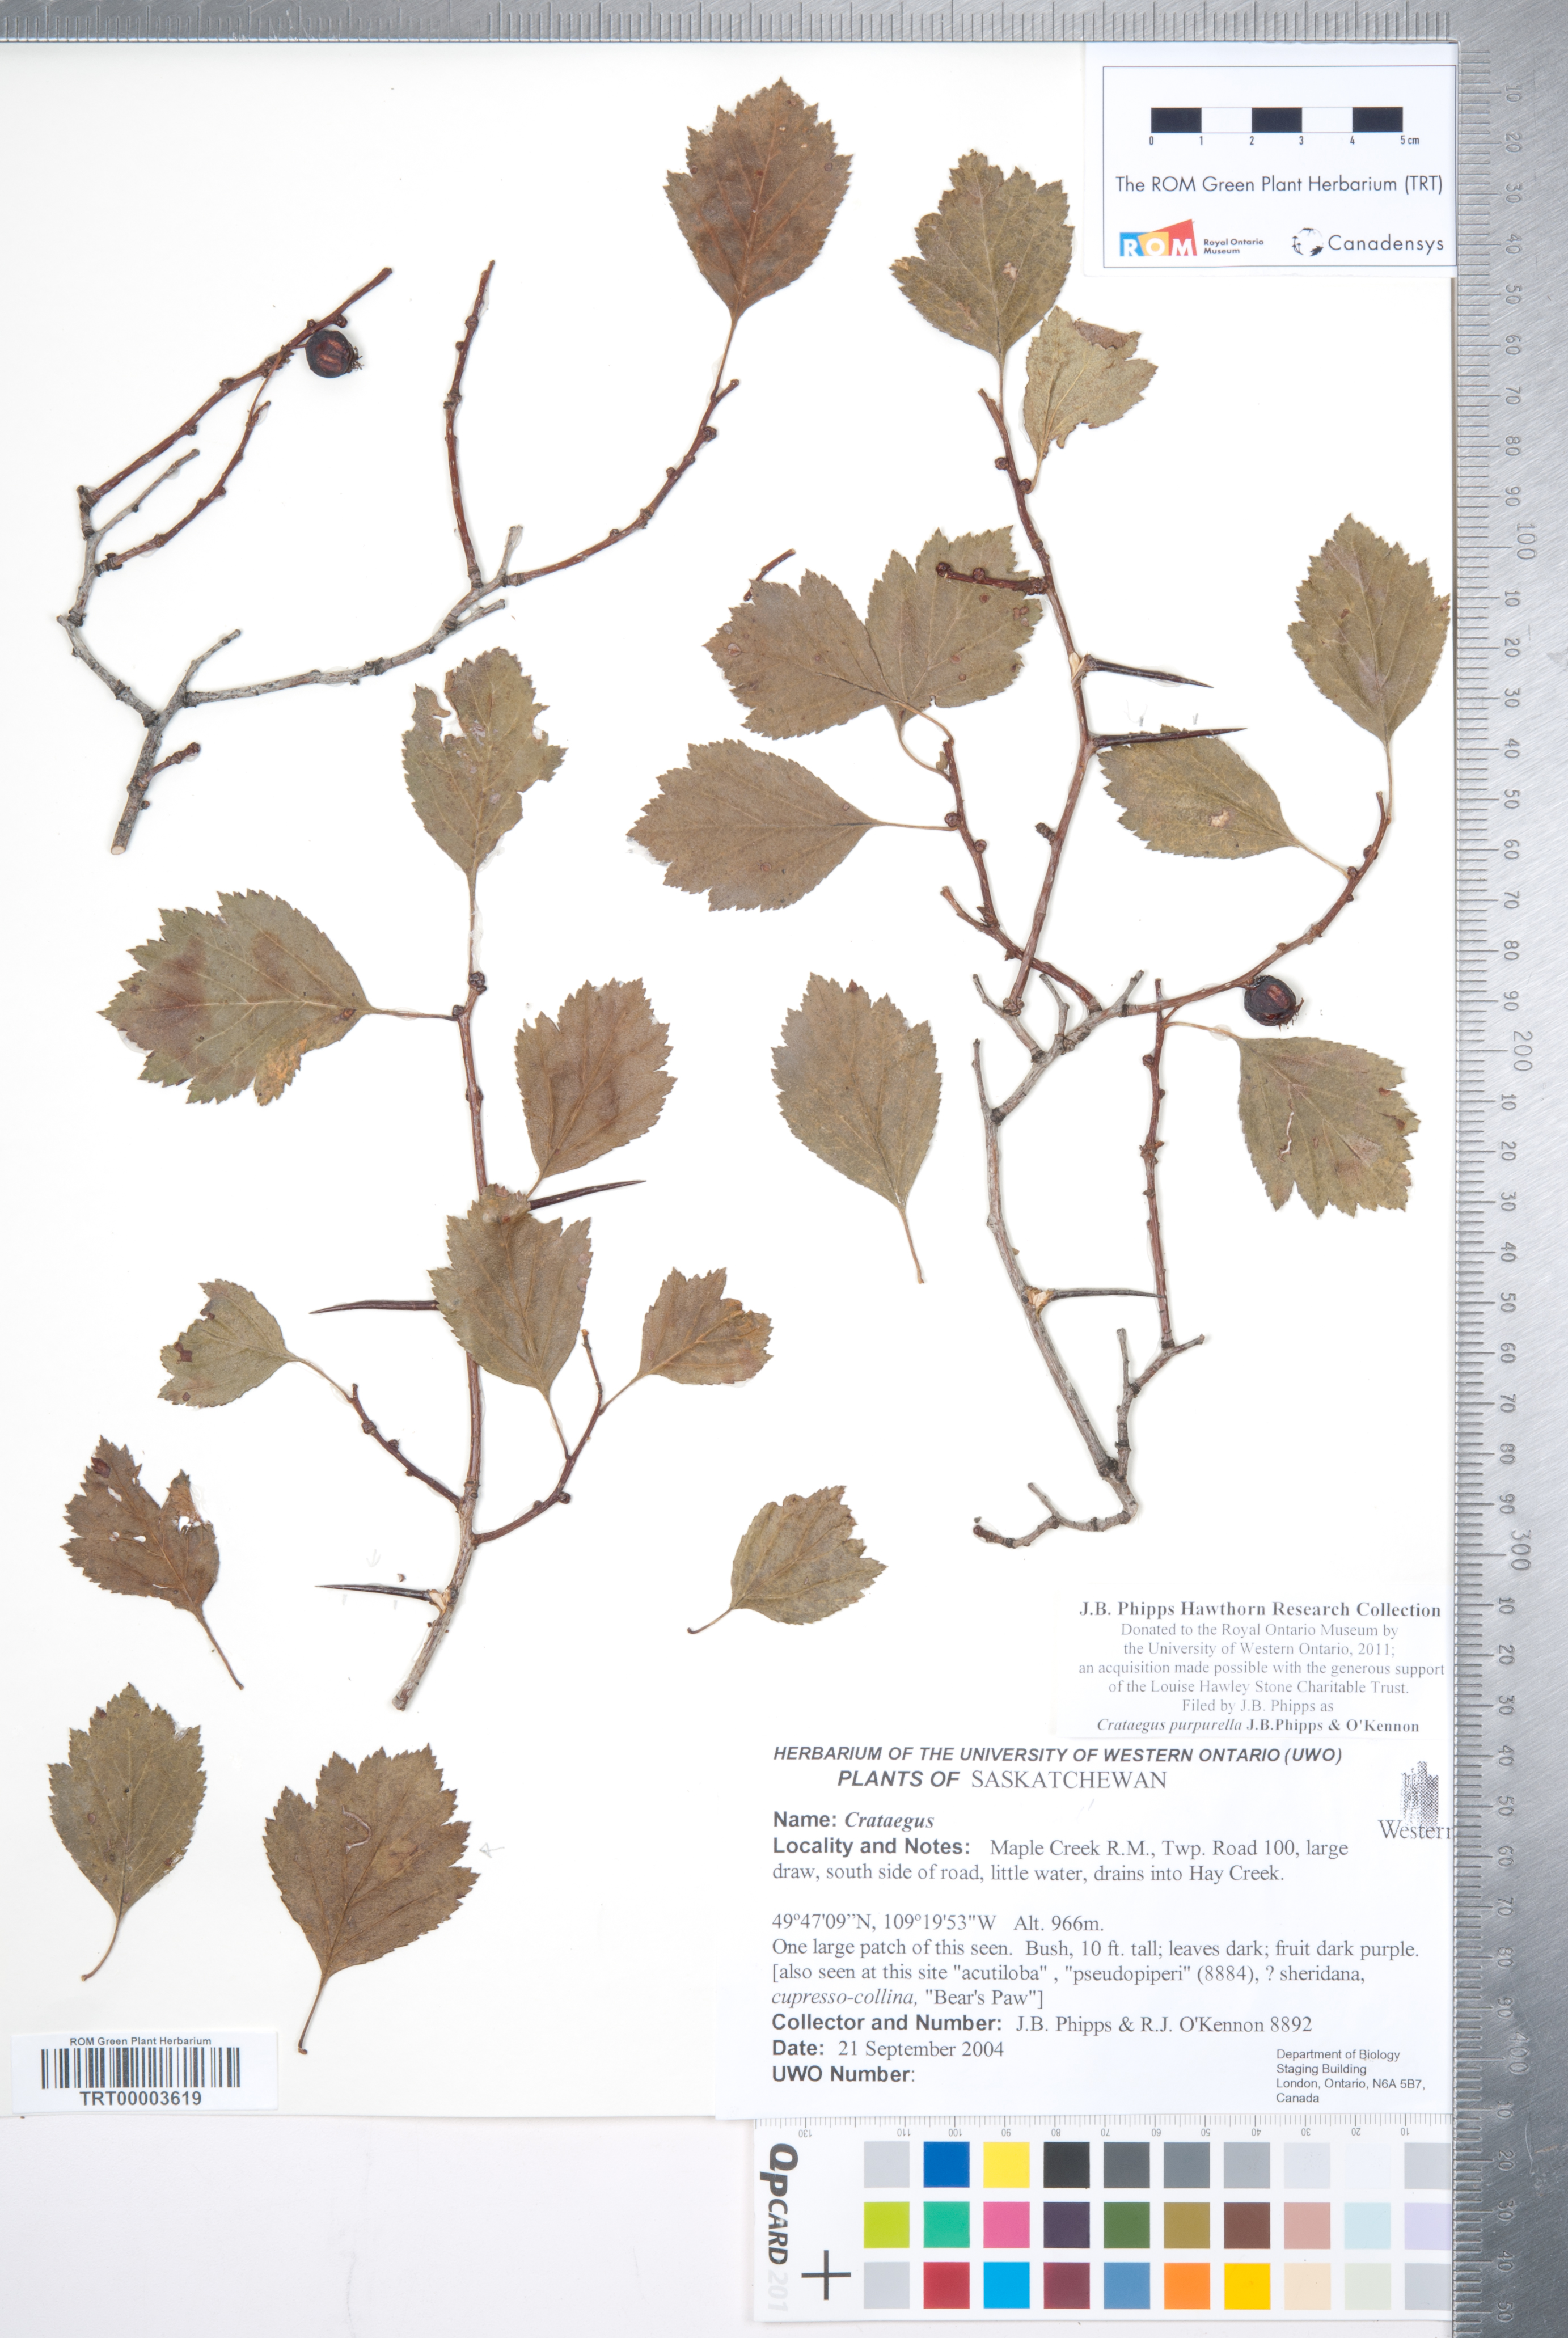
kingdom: Plantae
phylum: Tracheophyta
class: Magnoliopsida
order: Rosales
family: Rosaceae
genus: Crataegus
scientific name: Crataegus purpurella
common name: Loch lomond hawthorn
